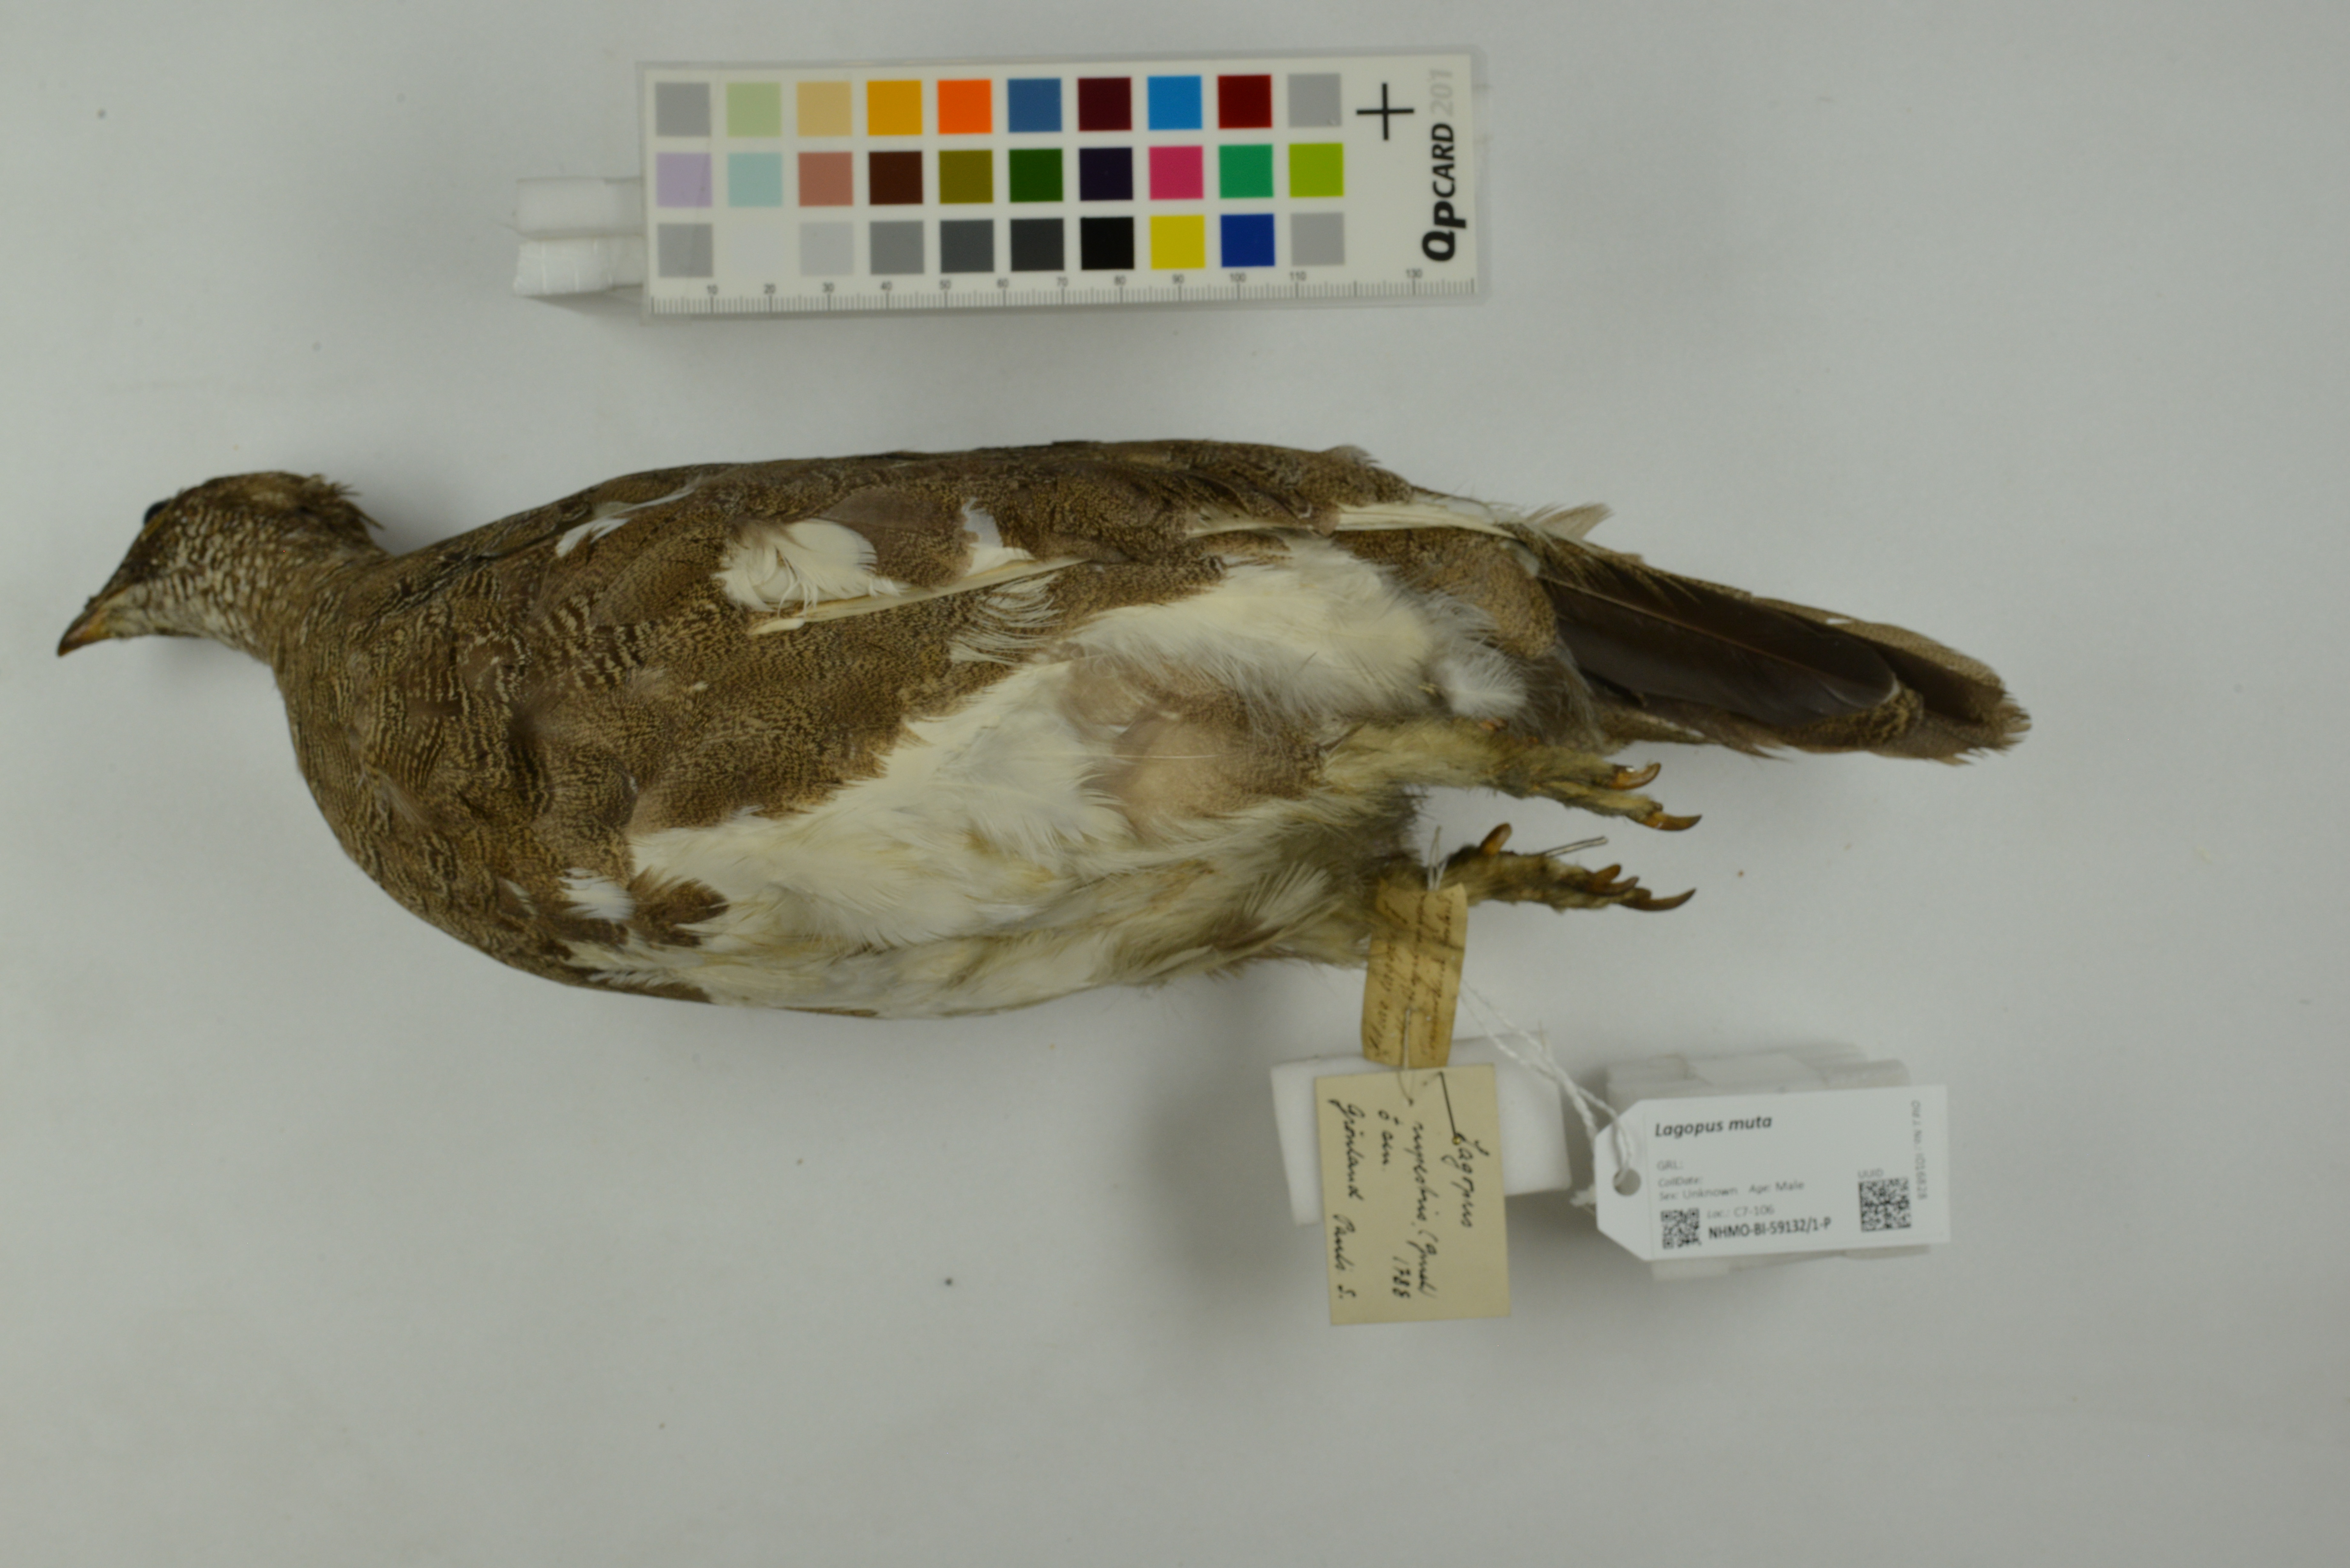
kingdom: Animalia
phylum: Chordata
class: Aves
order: Galliformes
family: Phasianidae
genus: Lagopus
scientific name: Lagopus muta
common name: Rock ptarmigan
